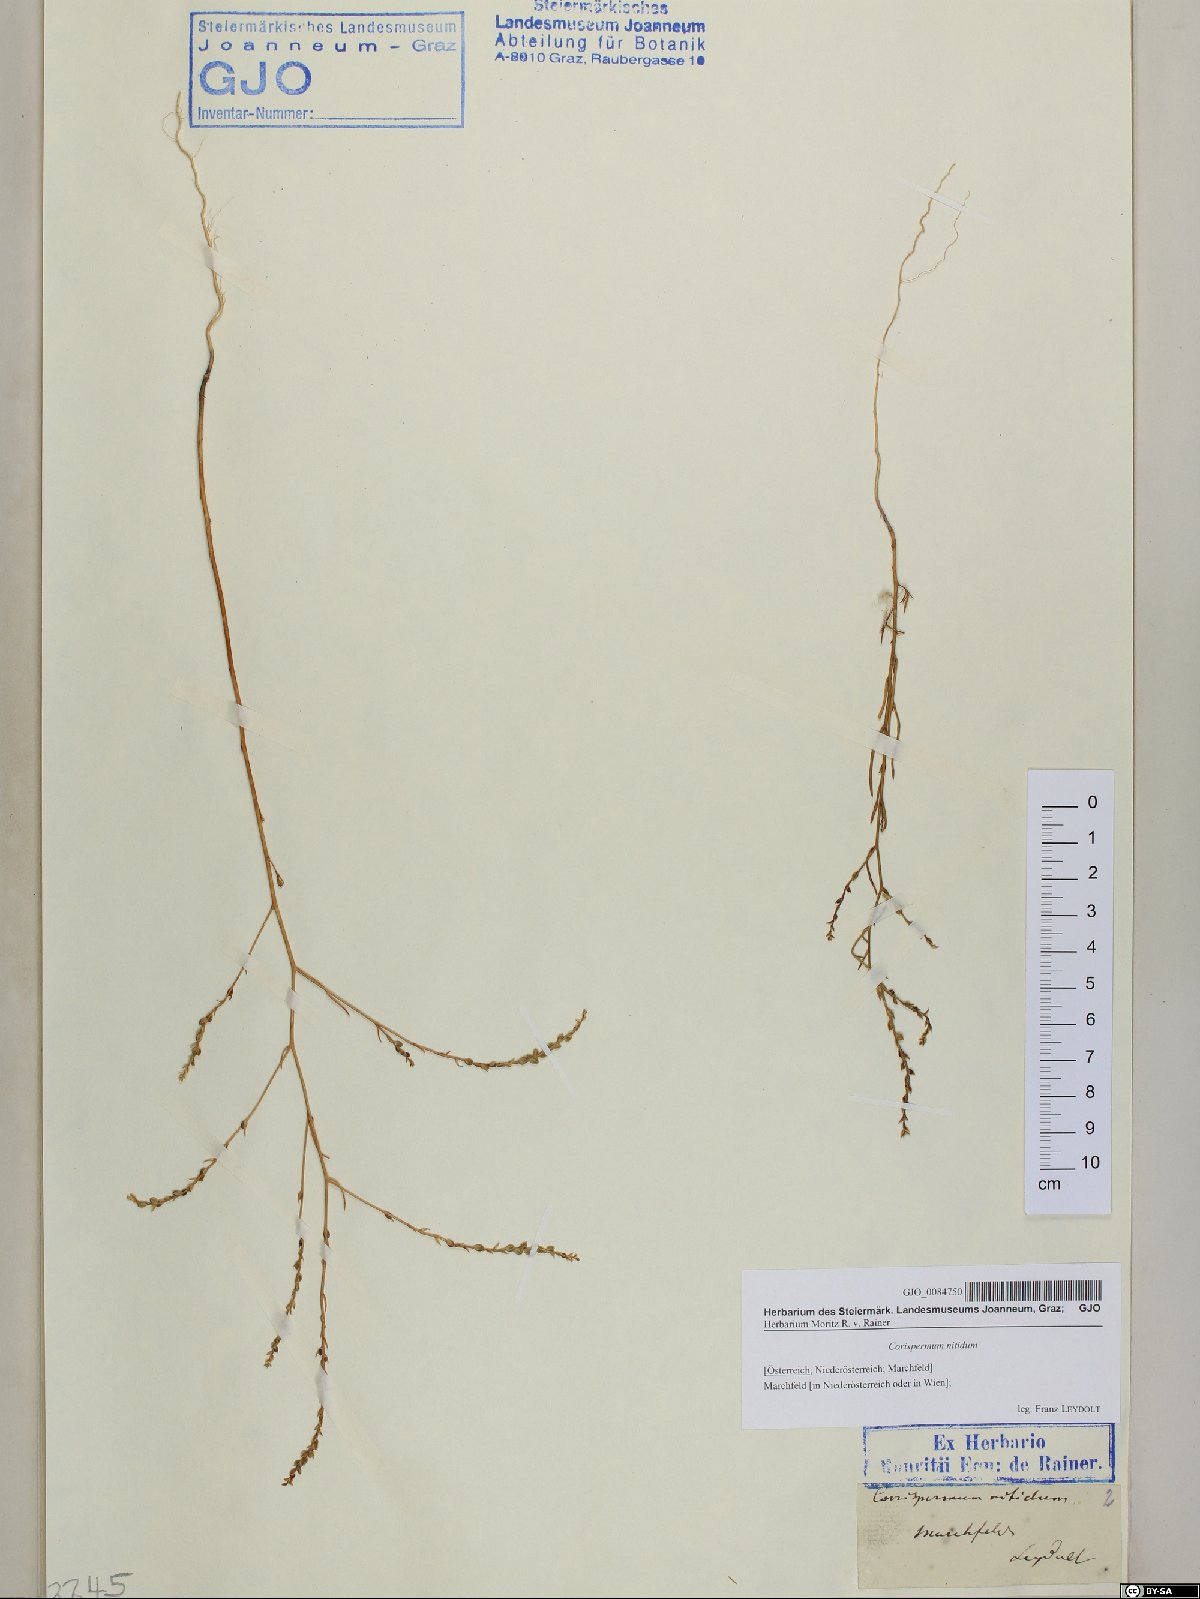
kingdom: Plantae
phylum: Tracheophyta
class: Magnoliopsida
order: Caryophyllales
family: Amaranthaceae
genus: Corispermum
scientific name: Corispermum nitidum
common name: Bugseed
